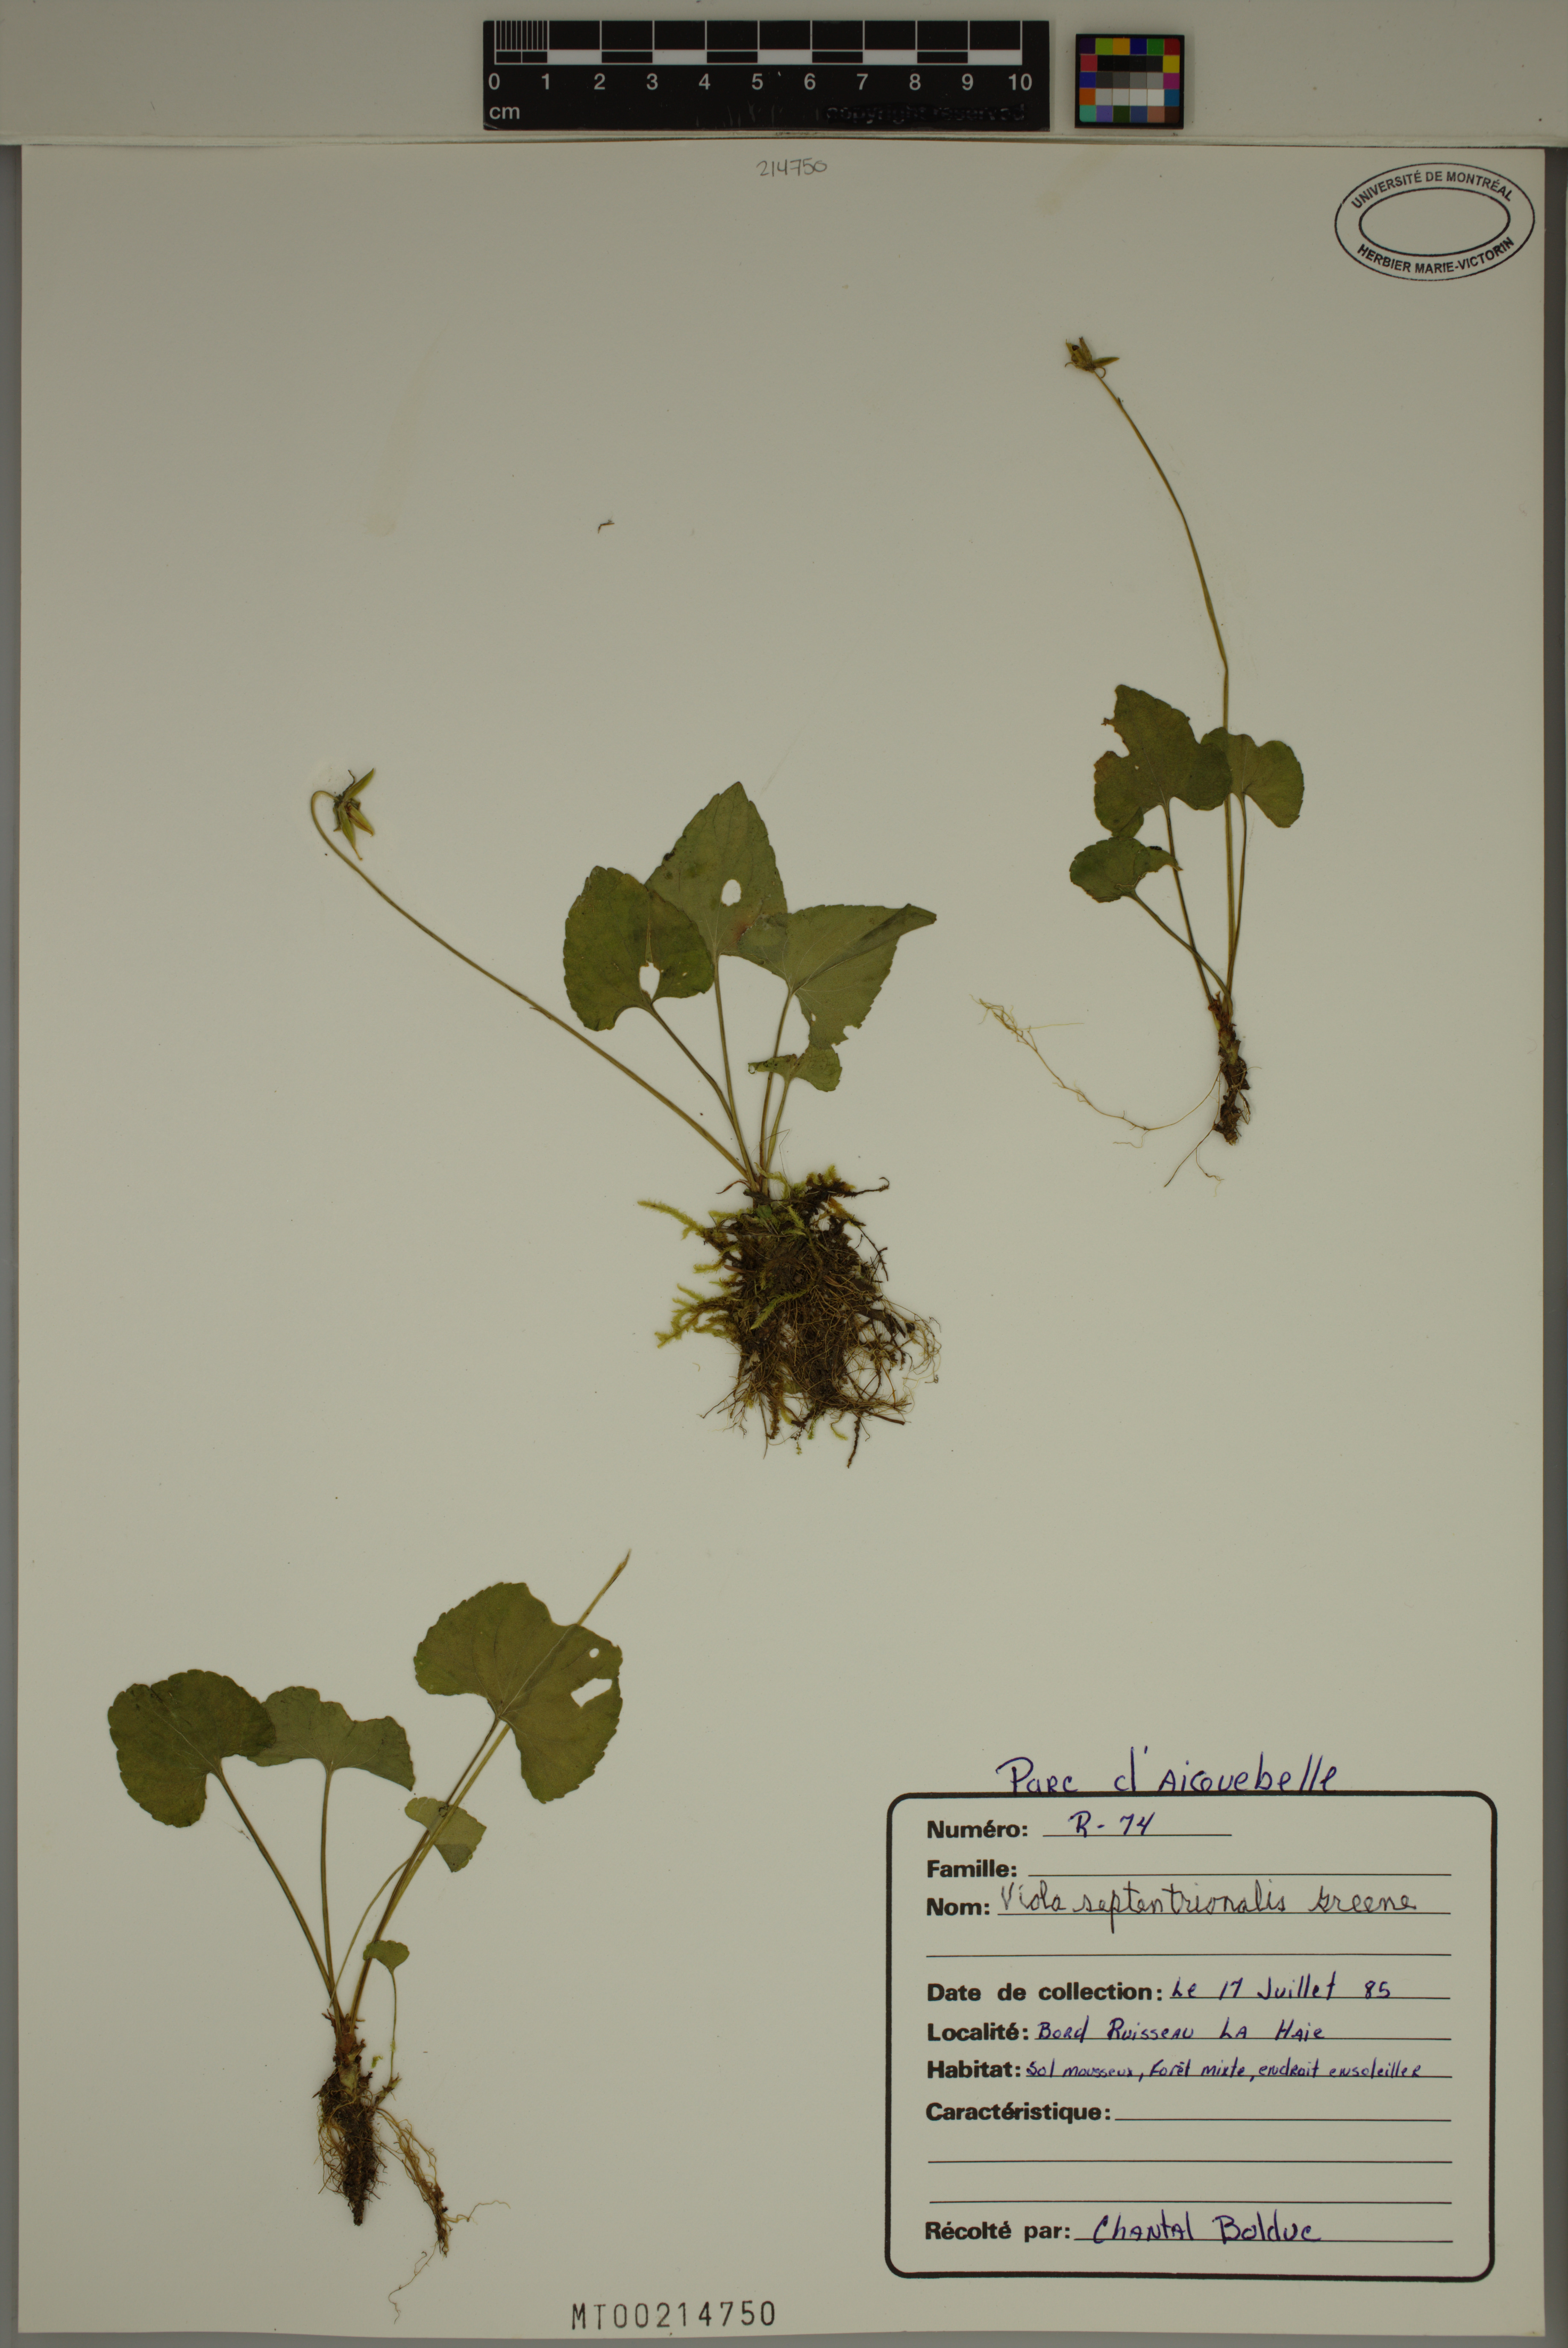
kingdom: Plantae
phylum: Tracheophyta
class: Magnoliopsida
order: Malpighiales
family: Violaceae
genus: Viola
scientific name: Viola sororia
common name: Dooryard violet
